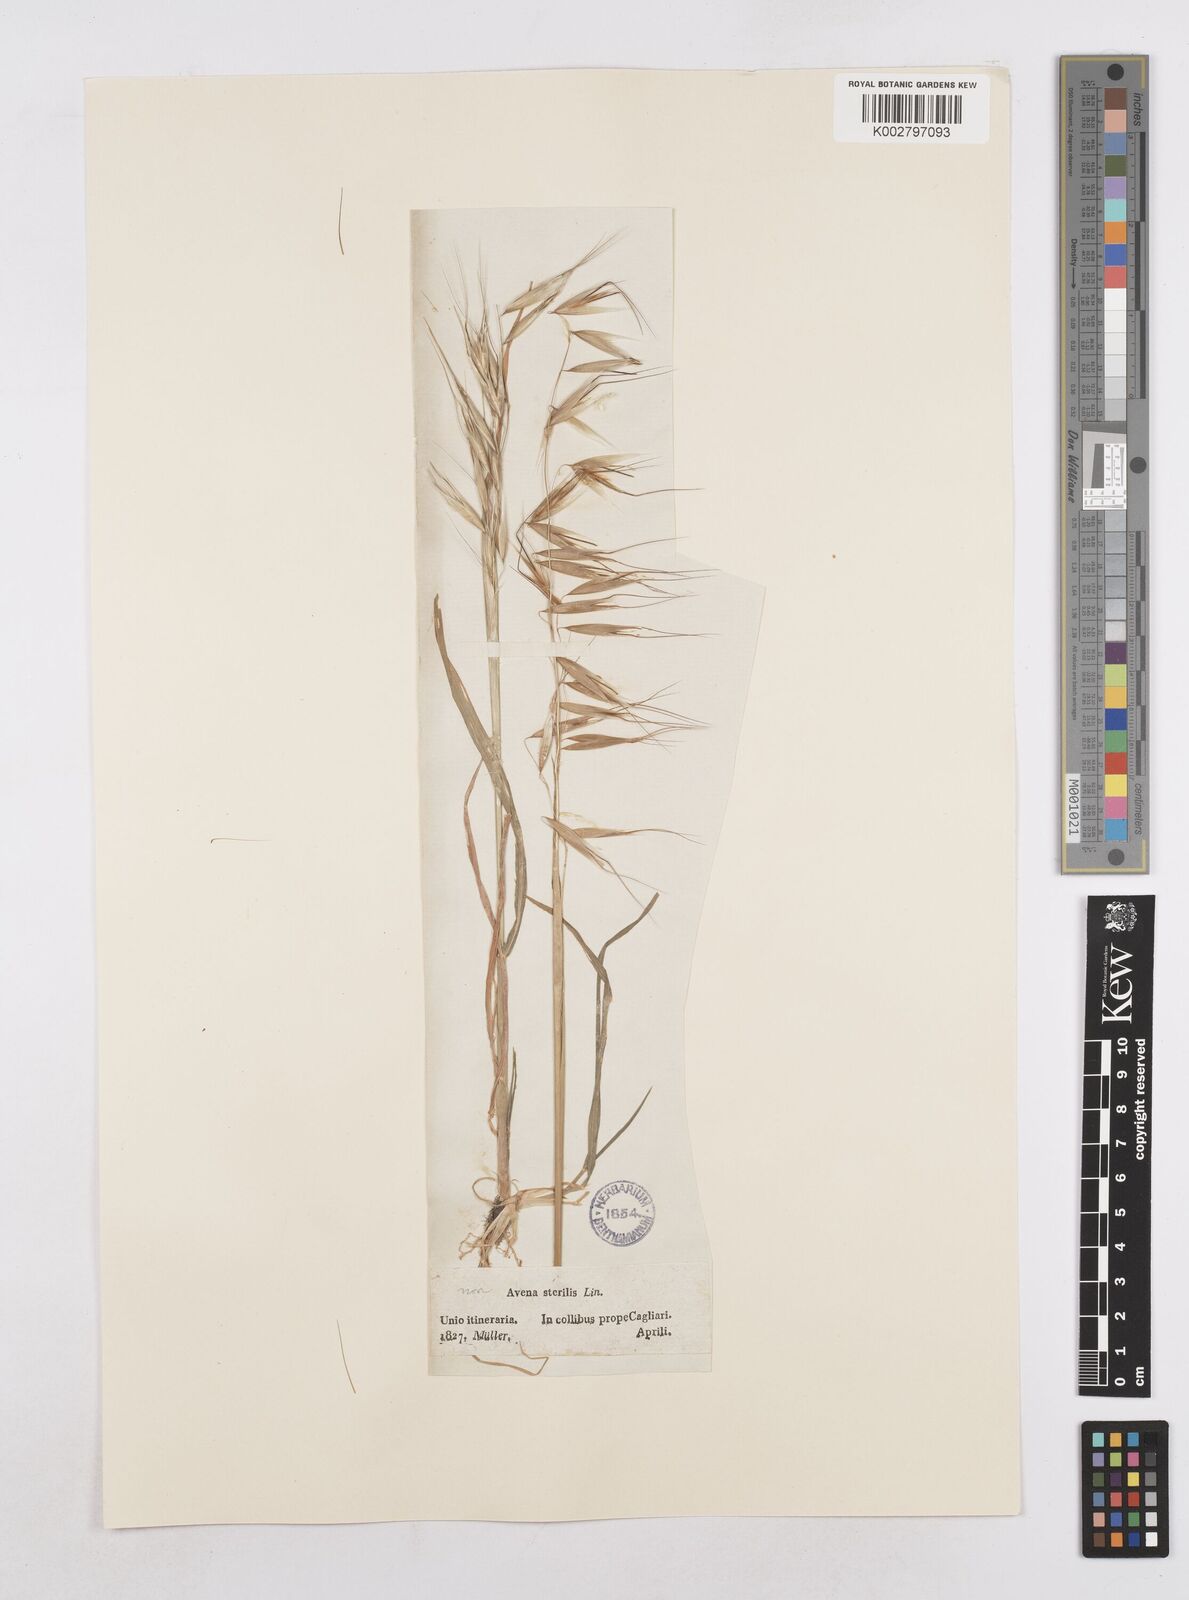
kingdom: Plantae
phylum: Tracheophyta
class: Liliopsida
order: Poales
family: Poaceae
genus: Avena
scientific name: Avena
